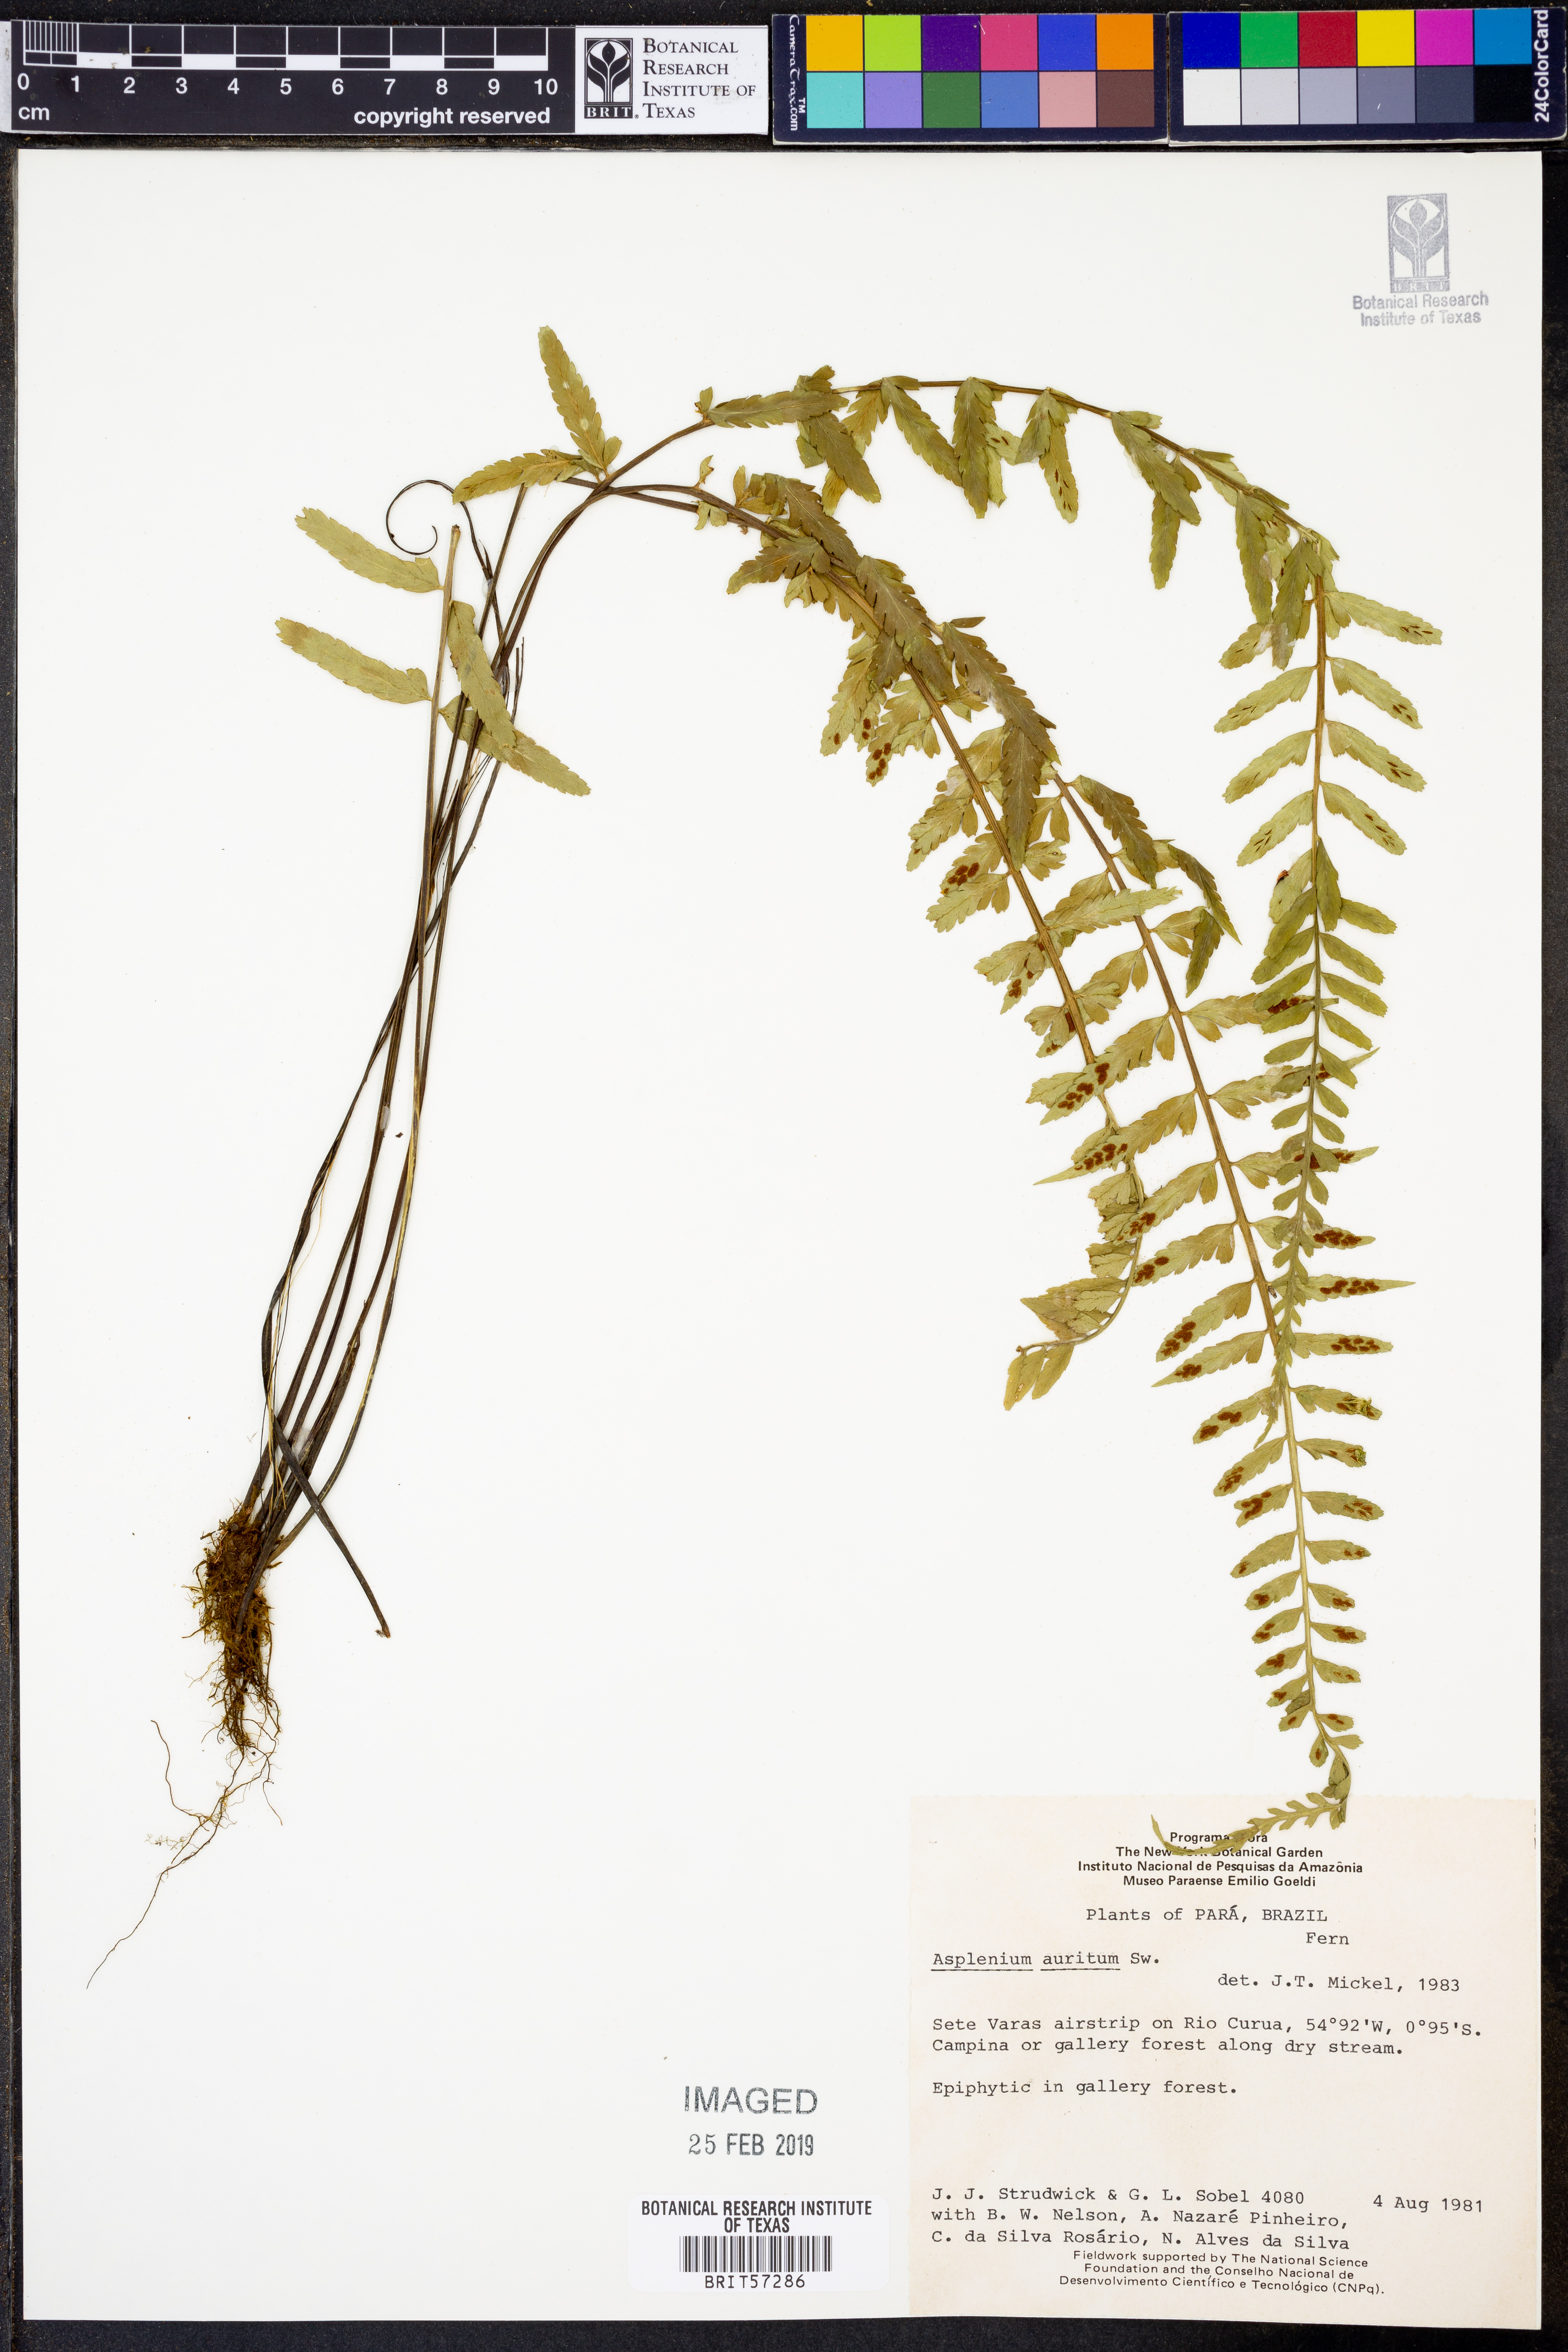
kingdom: Plantae
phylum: Tracheophyta
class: Polypodiopsida
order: Polypodiales
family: Aspleniaceae
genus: Asplenium
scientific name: Asplenium bipartitum
